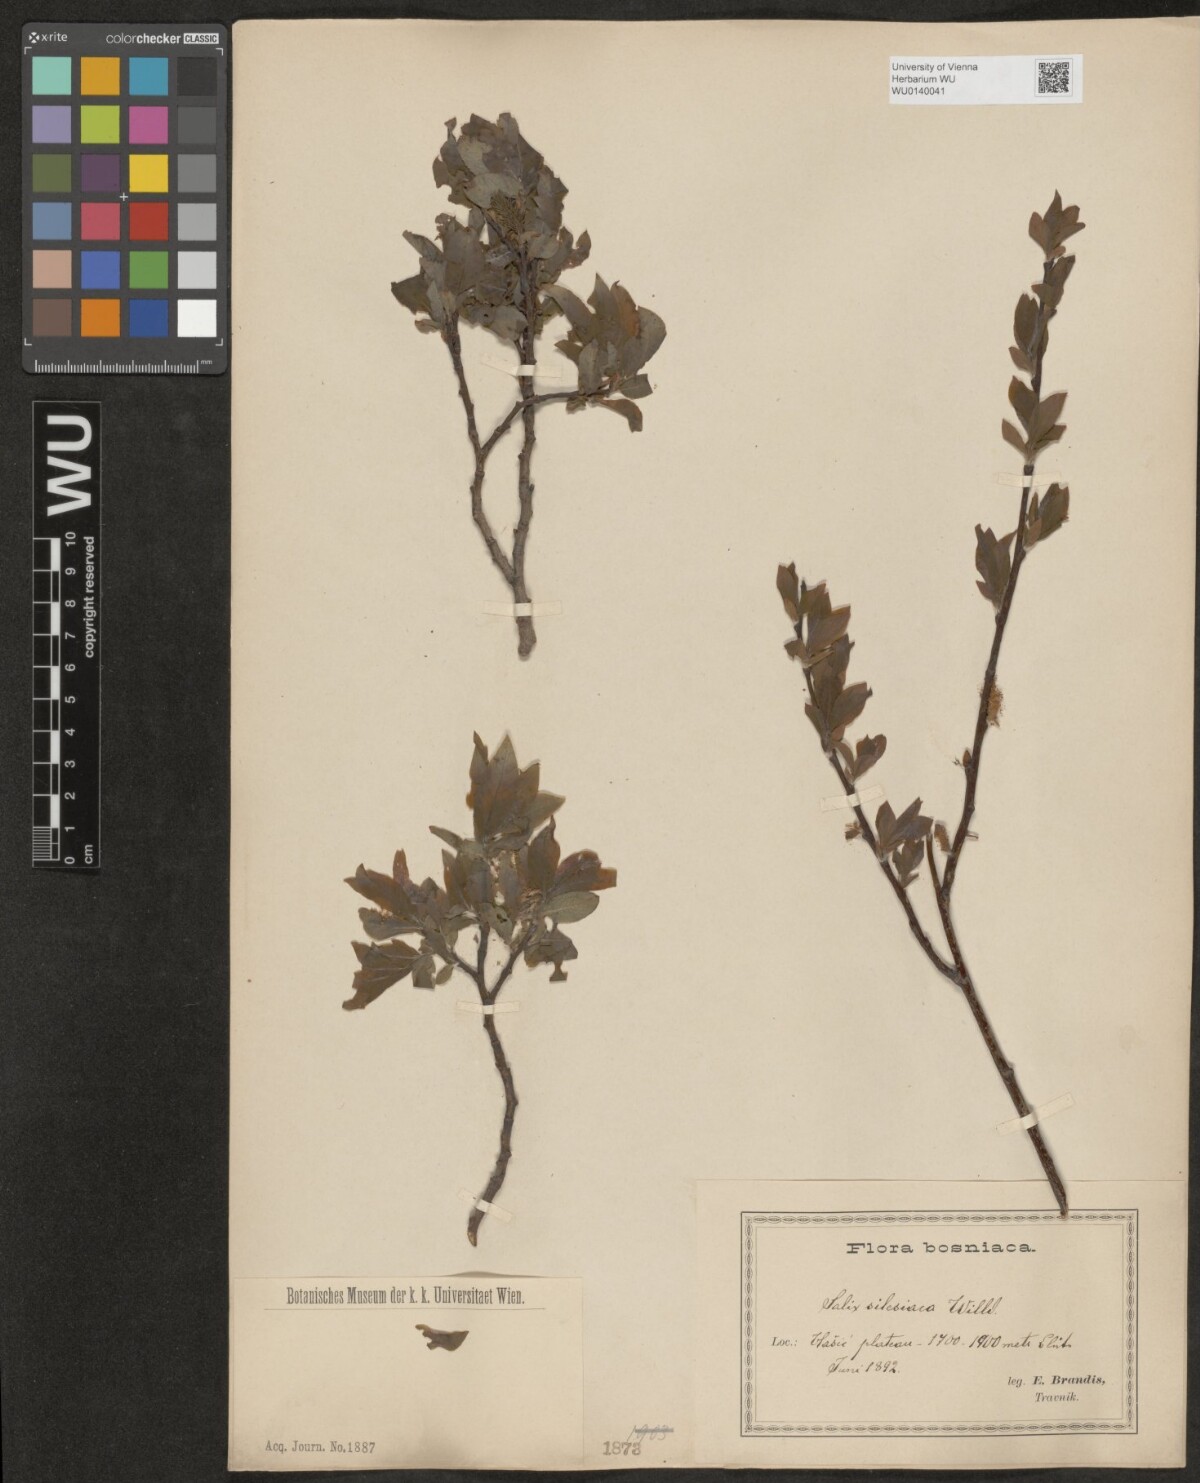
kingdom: Plantae
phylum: Tracheophyta
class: Magnoliopsida
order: Malpighiales
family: Salicaceae
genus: Salix
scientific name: Salix silesiaca
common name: Silesian willow
